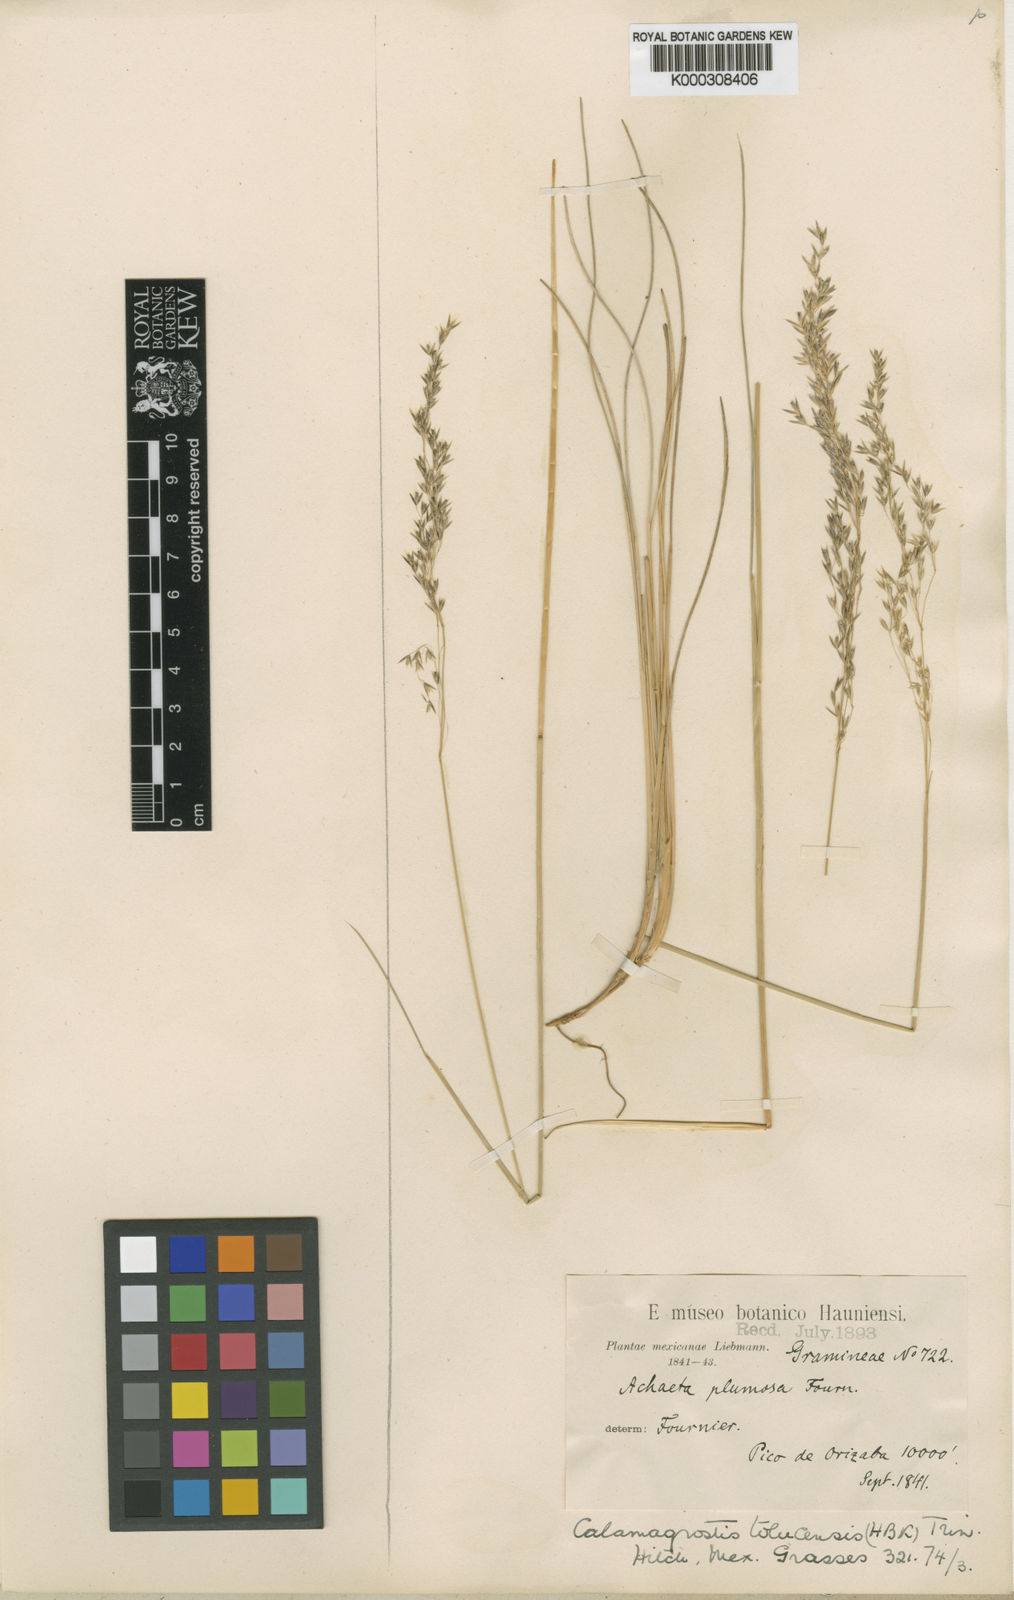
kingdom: Plantae
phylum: Tracheophyta
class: Liliopsida
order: Poales
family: Poaceae
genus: Peyritschia
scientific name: Peyritschia orizabae
